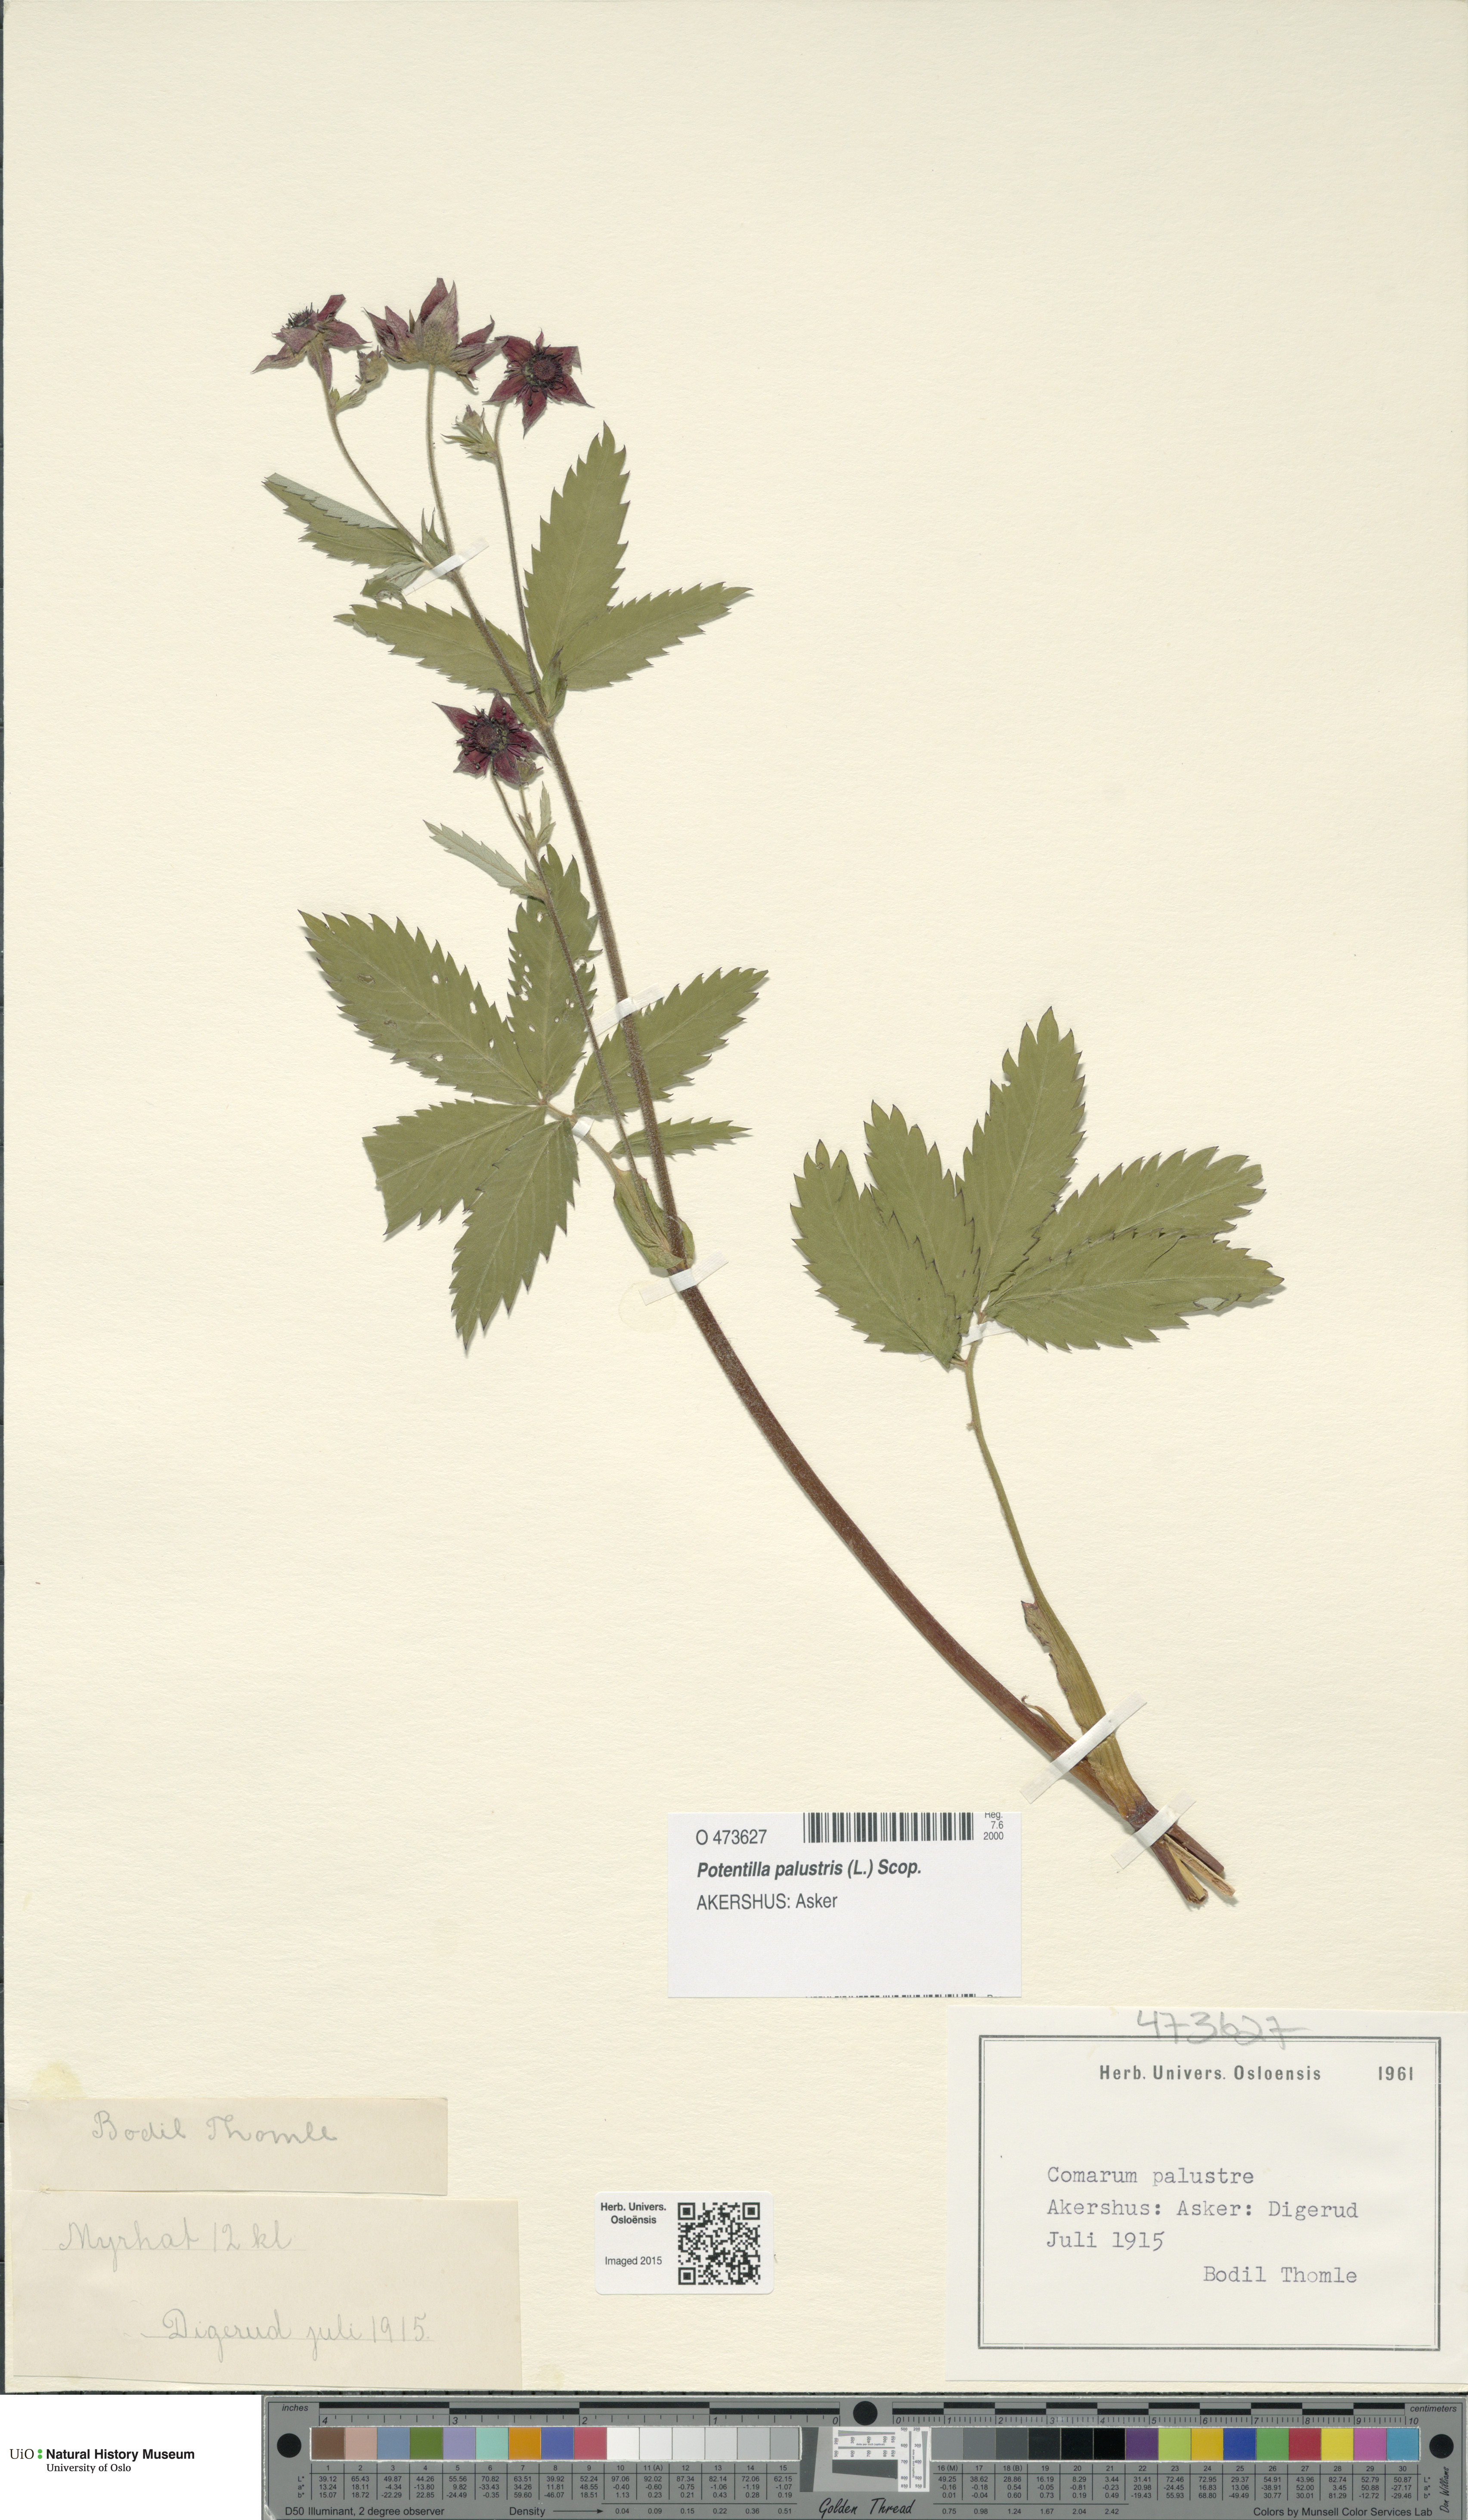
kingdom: Plantae
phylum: Tracheophyta
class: Magnoliopsida
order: Rosales
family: Rosaceae
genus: Comarum
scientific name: Comarum palustre
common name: Marsh cinquefoil
